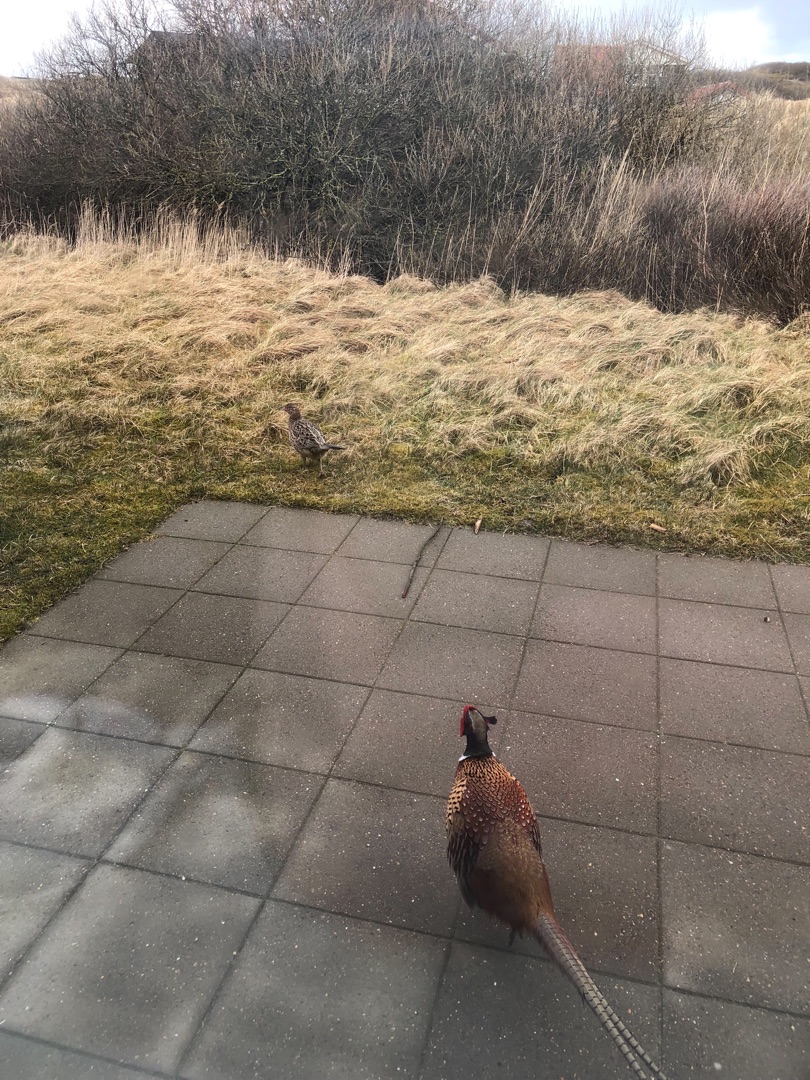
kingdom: Animalia
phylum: Chordata
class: Aves
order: Galliformes
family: Phasianidae
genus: Phasianus
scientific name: Phasianus colchicus
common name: Fasan
